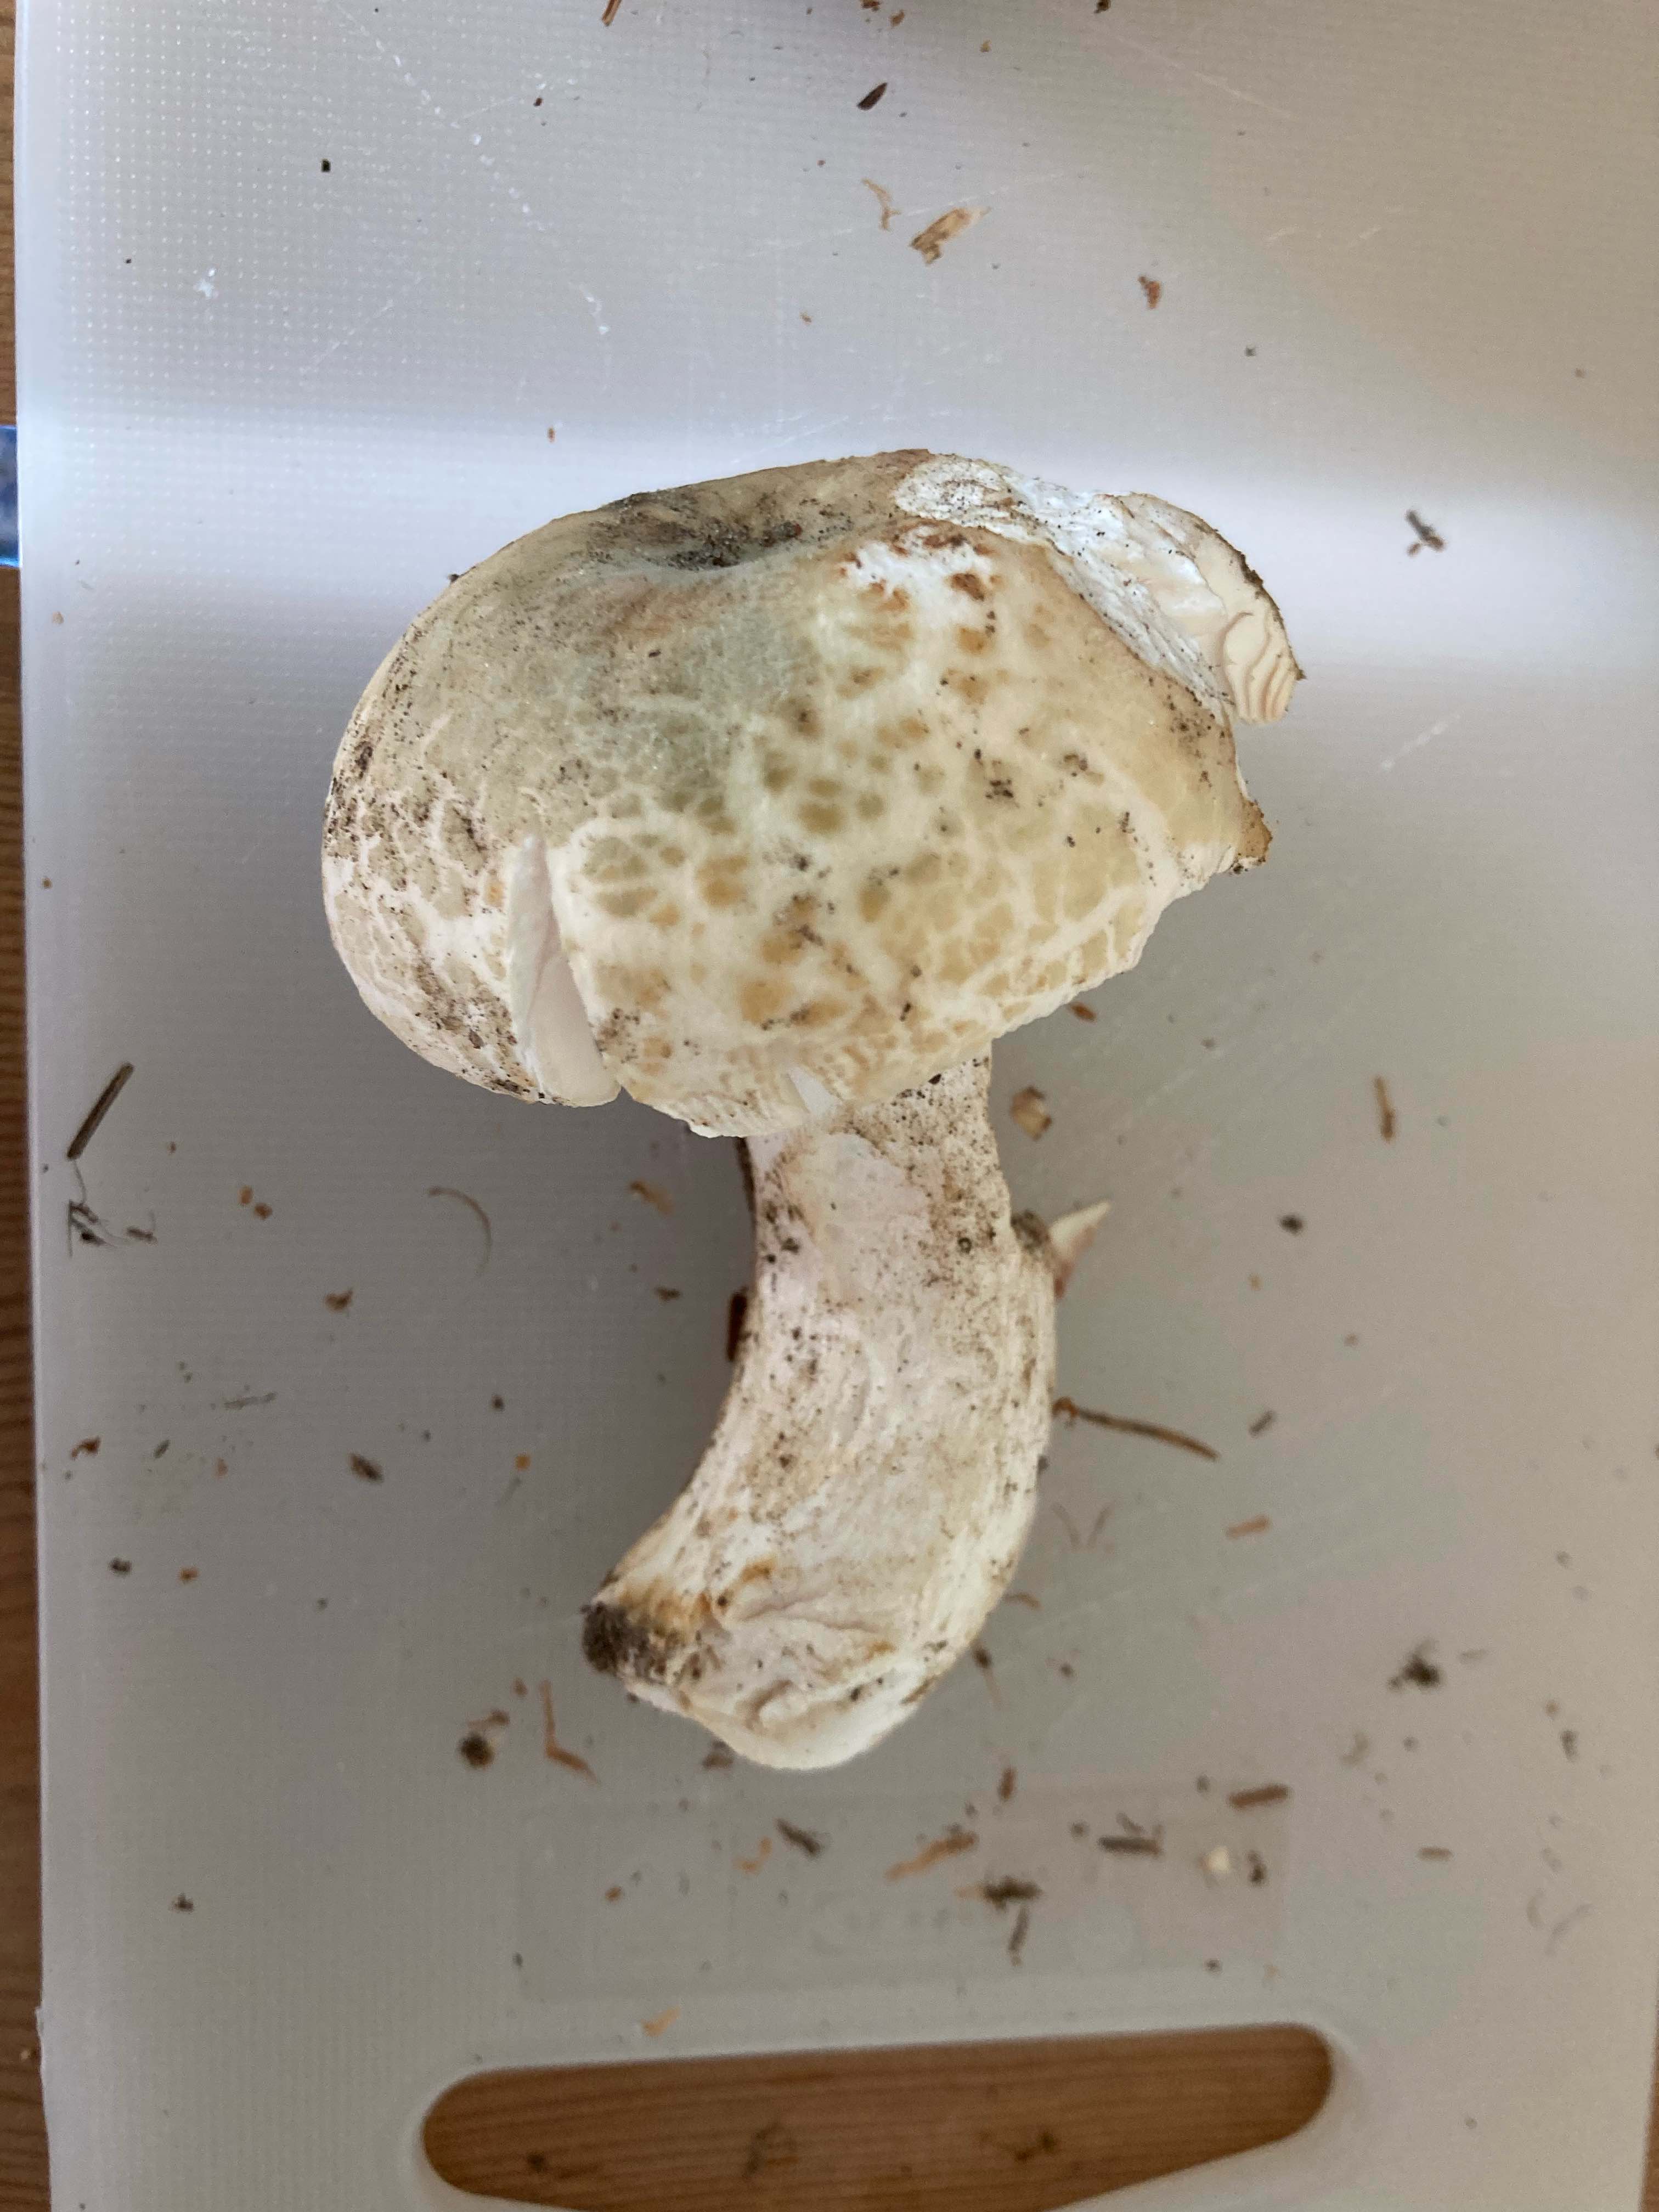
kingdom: Fungi
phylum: Basidiomycota
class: Agaricomycetes
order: Russulales
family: Russulaceae
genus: Russula
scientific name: Russula virescens
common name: spanskgrøn skørhat
